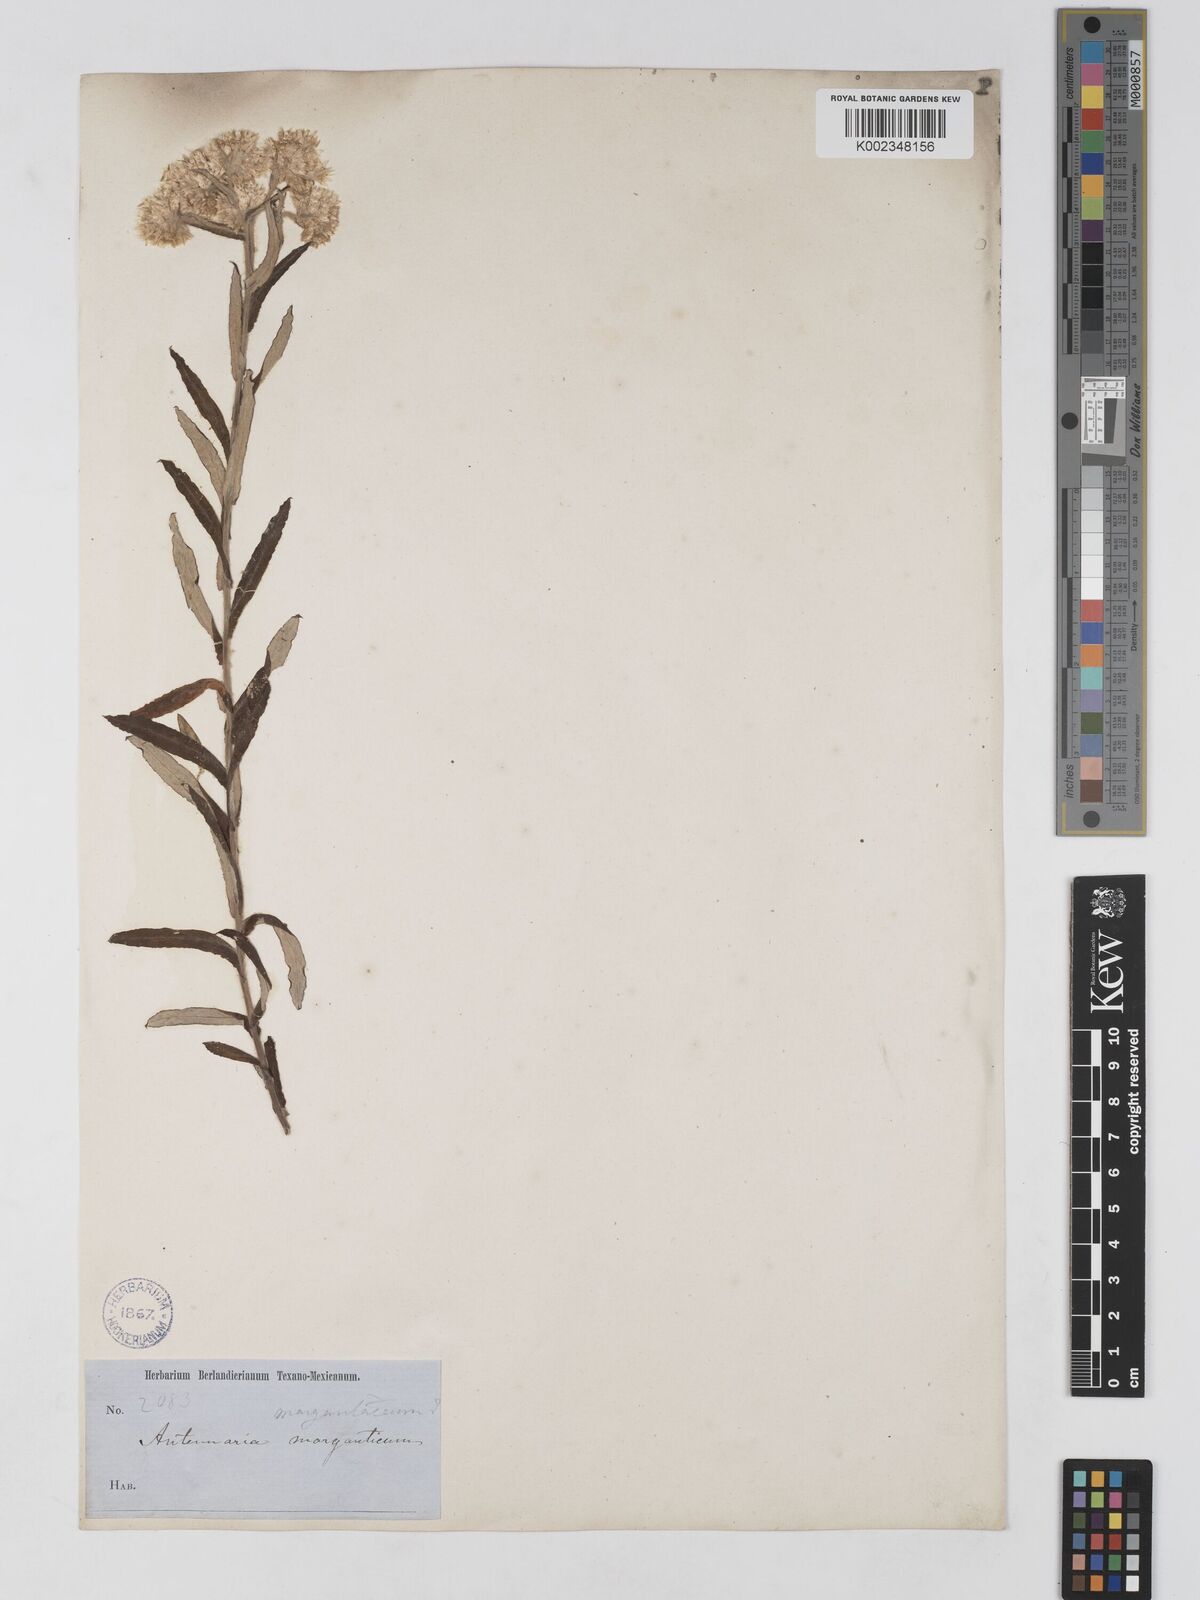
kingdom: Plantae
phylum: Tracheophyta
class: Magnoliopsida
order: Asterales
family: Asteraceae
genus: Anaphalis
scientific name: Anaphalis margaritacea
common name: Pearly everlasting
